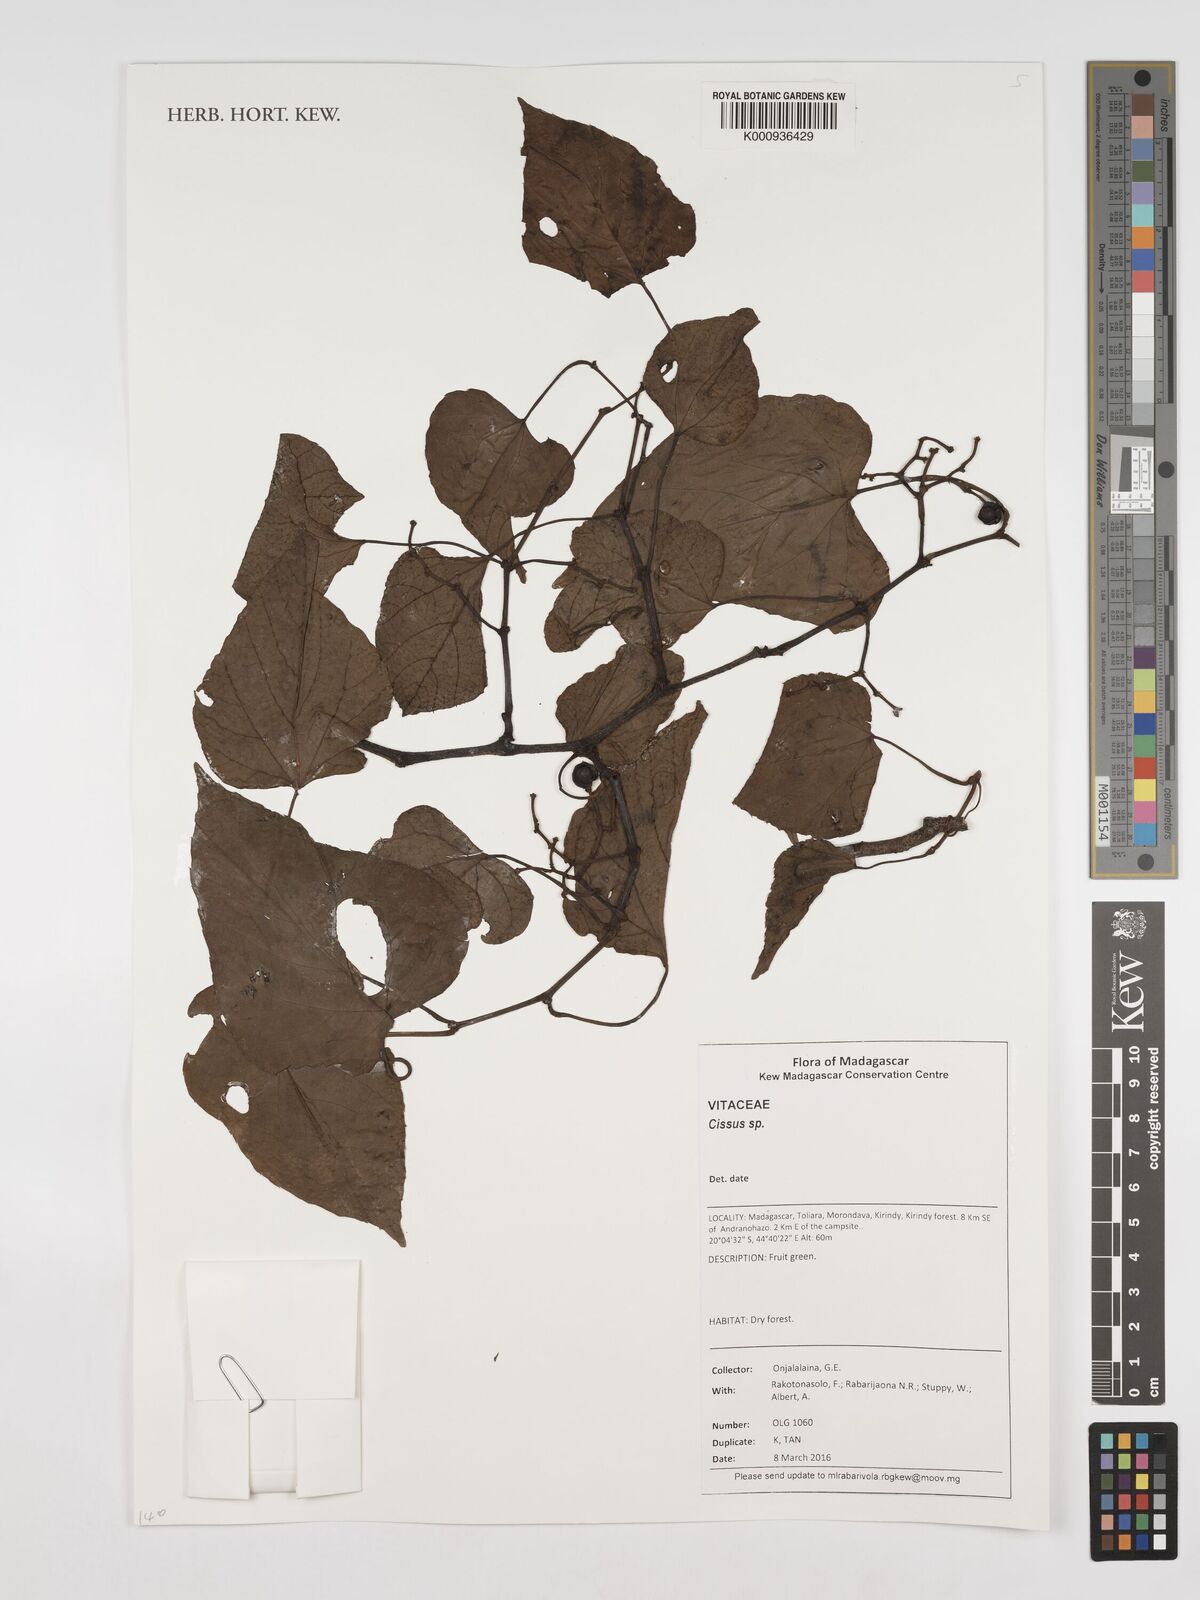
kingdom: Plantae
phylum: Tracheophyta
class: Magnoliopsida
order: Vitales
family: Vitaceae
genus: Cissus
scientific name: Cissus
